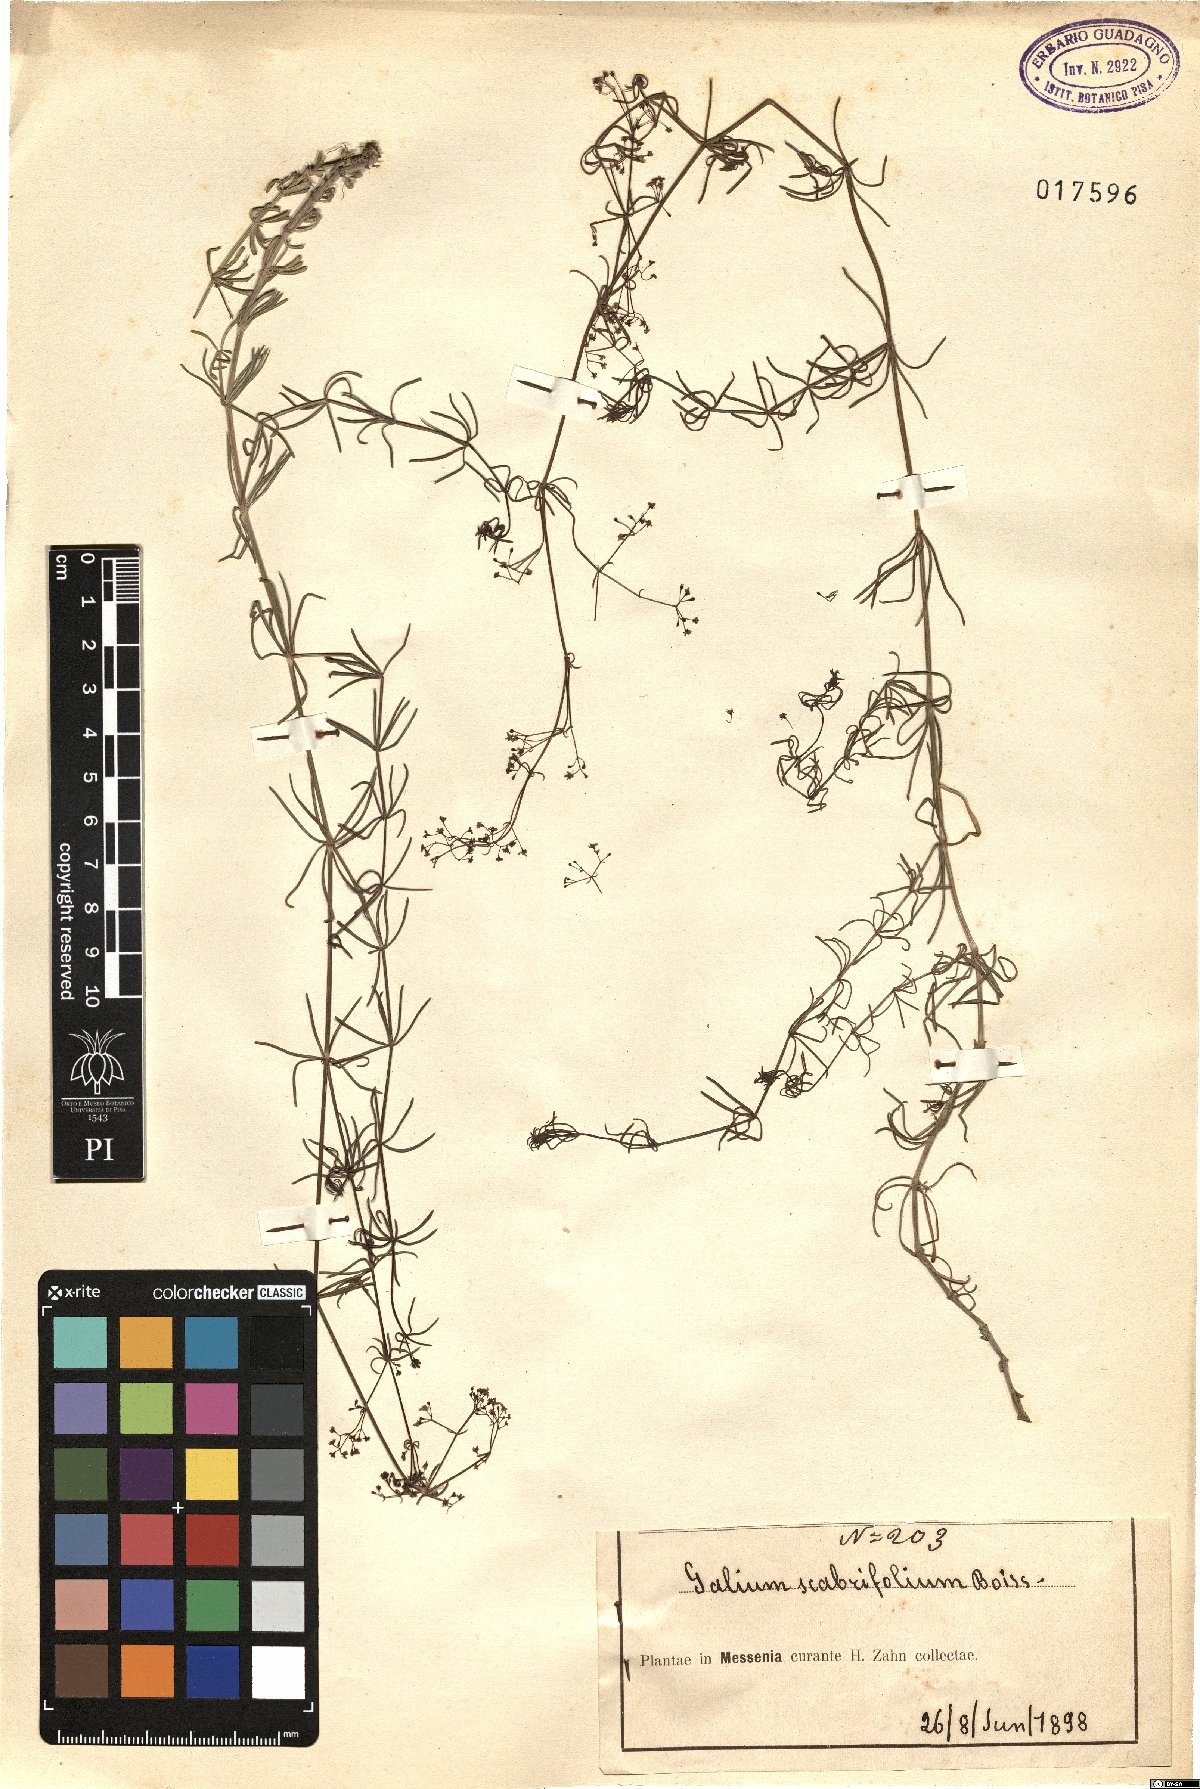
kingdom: Plantae
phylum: Tracheophyta
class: Magnoliopsida
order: Gentianales
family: Rubiaceae
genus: Galium
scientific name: Galium scabrifolium
